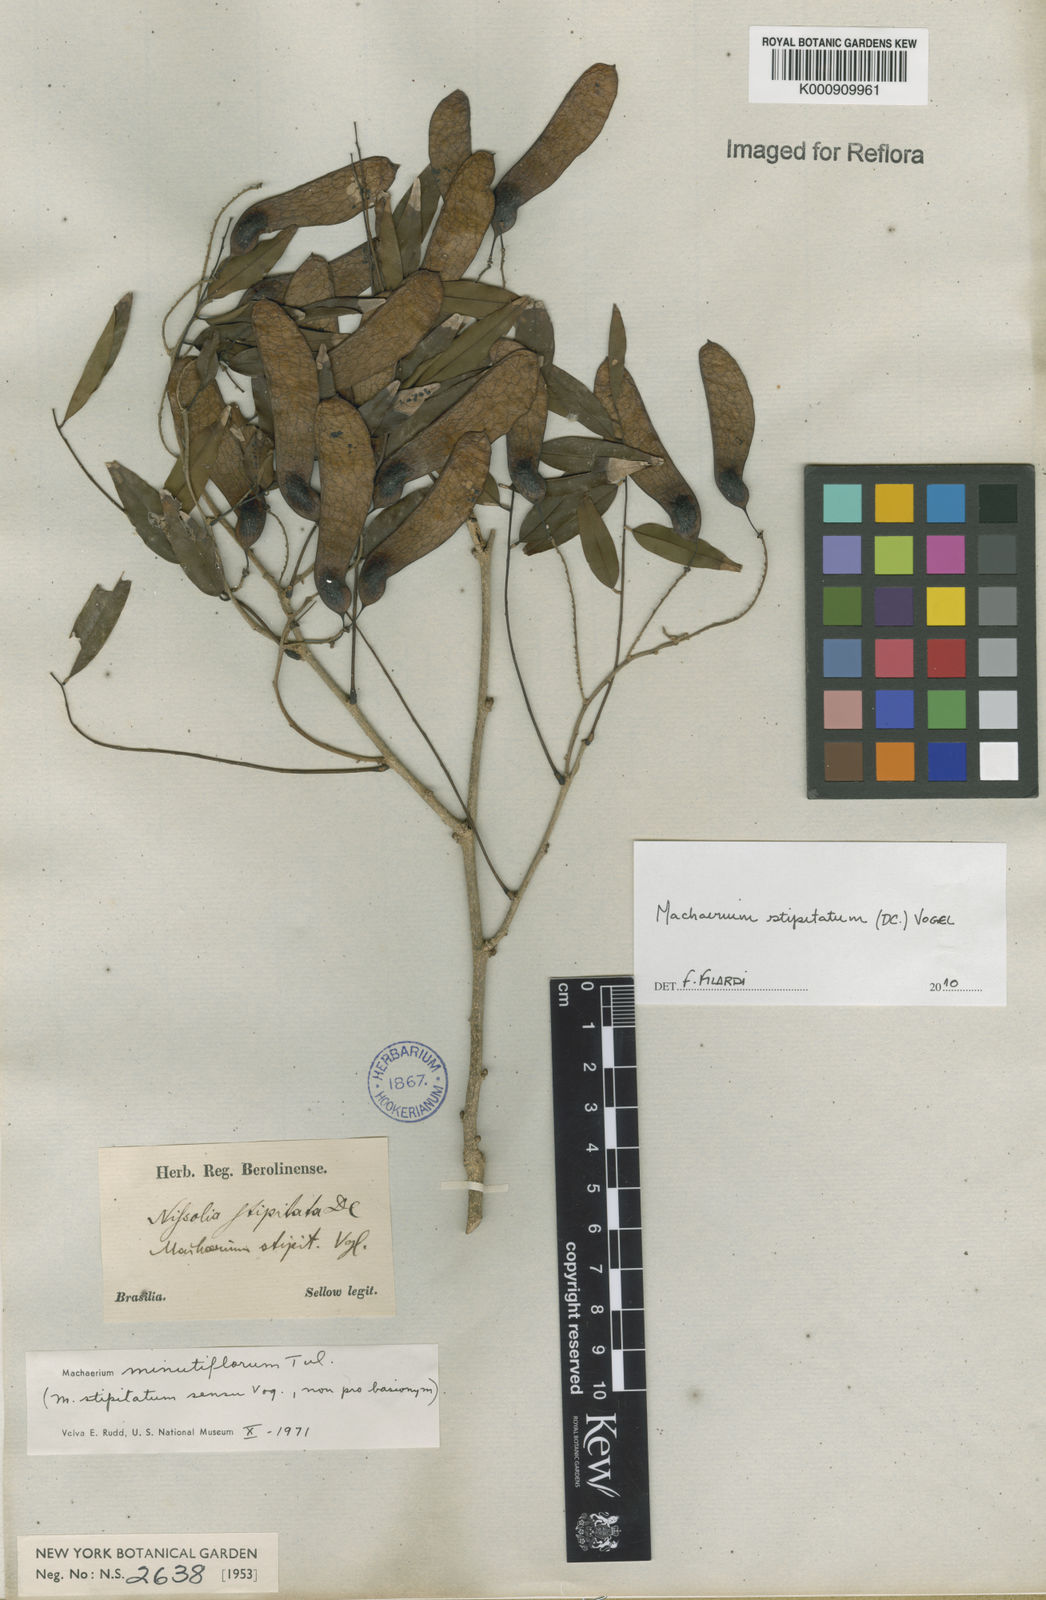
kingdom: Plantae
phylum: Tracheophyta
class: Magnoliopsida
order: Fabales
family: Fabaceae
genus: Machaerium
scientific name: Machaerium stipitatum
